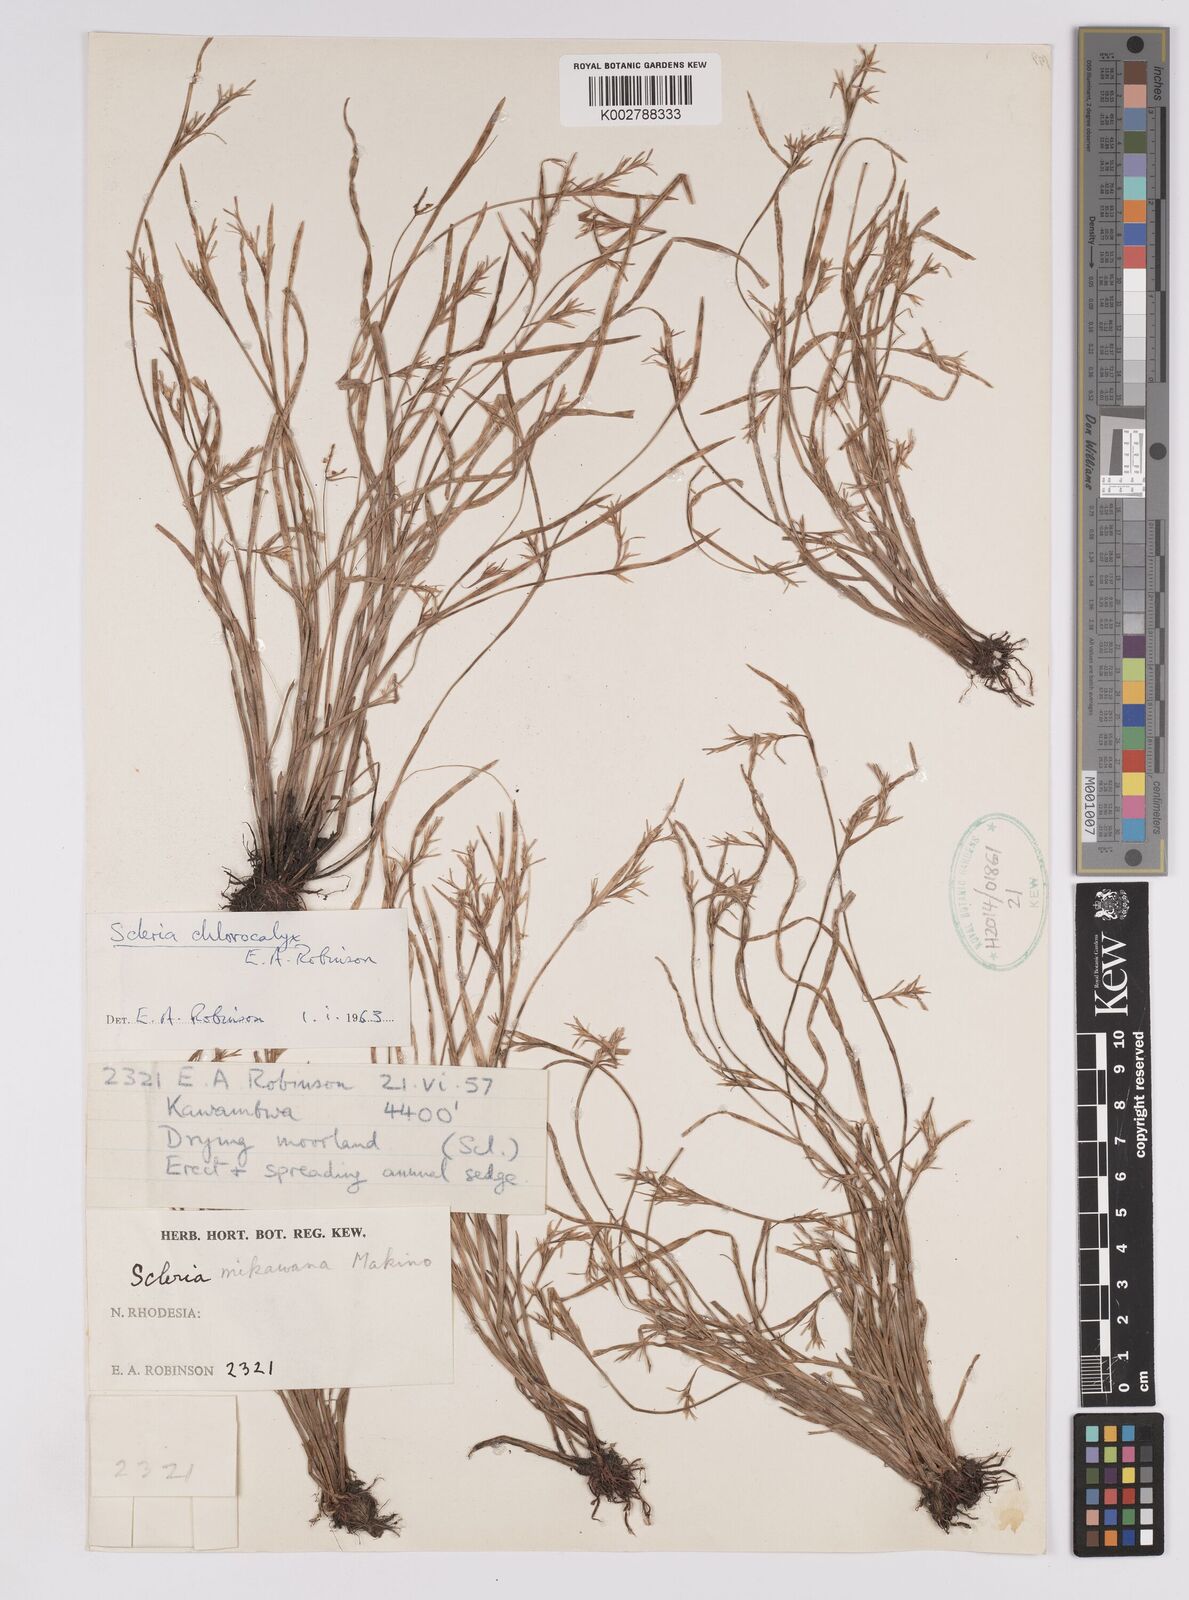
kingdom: Plantae
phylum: Tracheophyta
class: Liliopsida
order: Poales
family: Cyperaceae
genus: Scleria
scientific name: Scleria chlorocalyx
